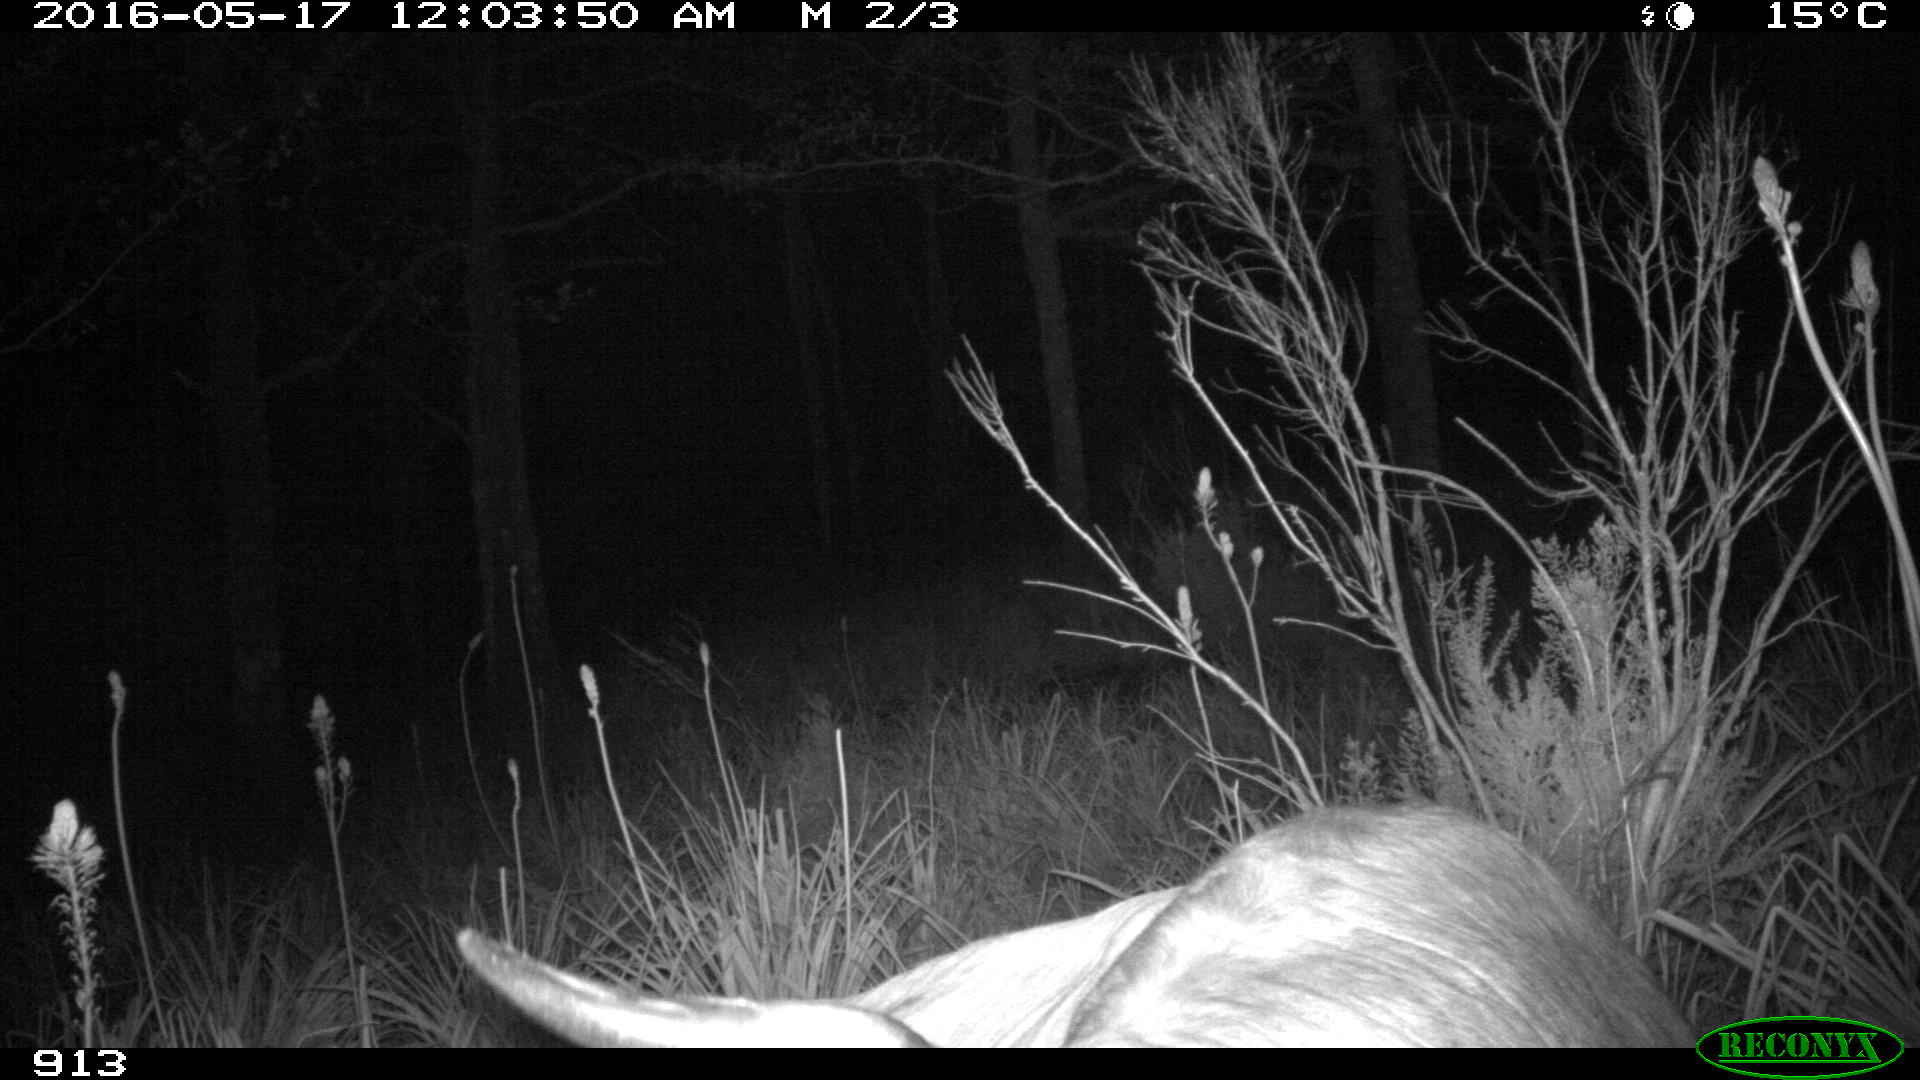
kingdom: Animalia
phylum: Chordata
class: Mammalia
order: Artiodactyla
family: Bovidae
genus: Bos
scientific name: Bos taurus
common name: Domesticated cattle
